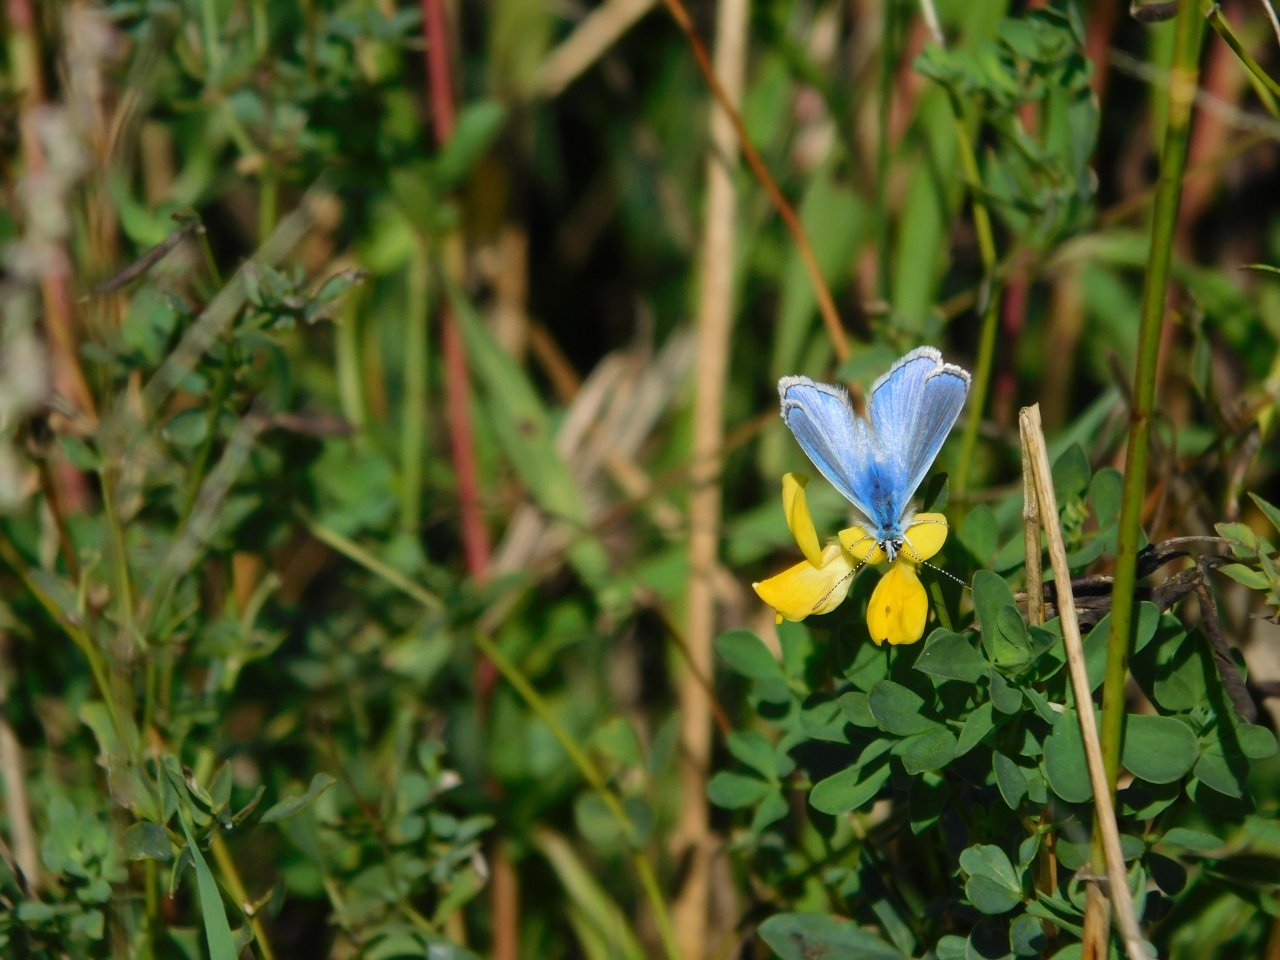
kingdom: Animalia
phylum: Arthropoda
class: Insecta
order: Lepidoptera
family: Lycaenidae
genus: Polyommatus
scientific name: Polyommatus icarus
